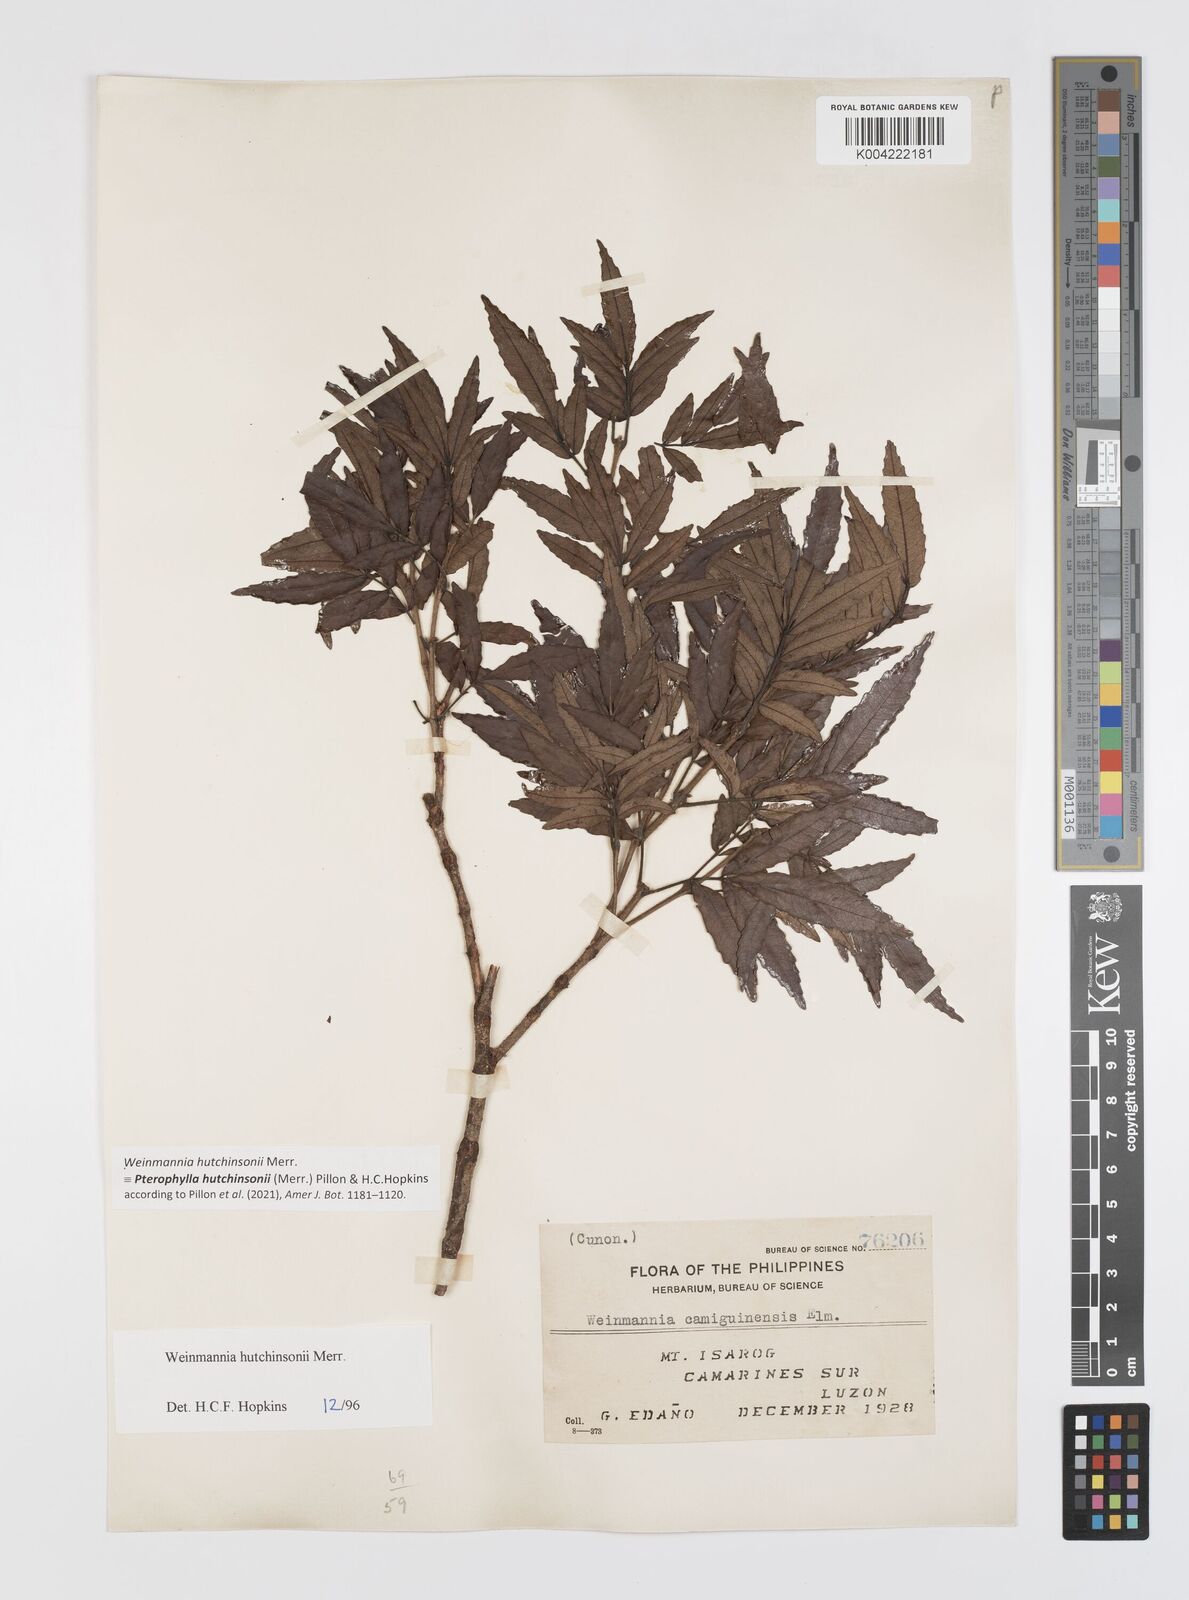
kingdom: Plantae
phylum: Tracheophyta
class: Magnoliopsida
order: Oxalidales
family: Cunoniaceae
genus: Pterophylla
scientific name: Pterophylla hutchinsonii
